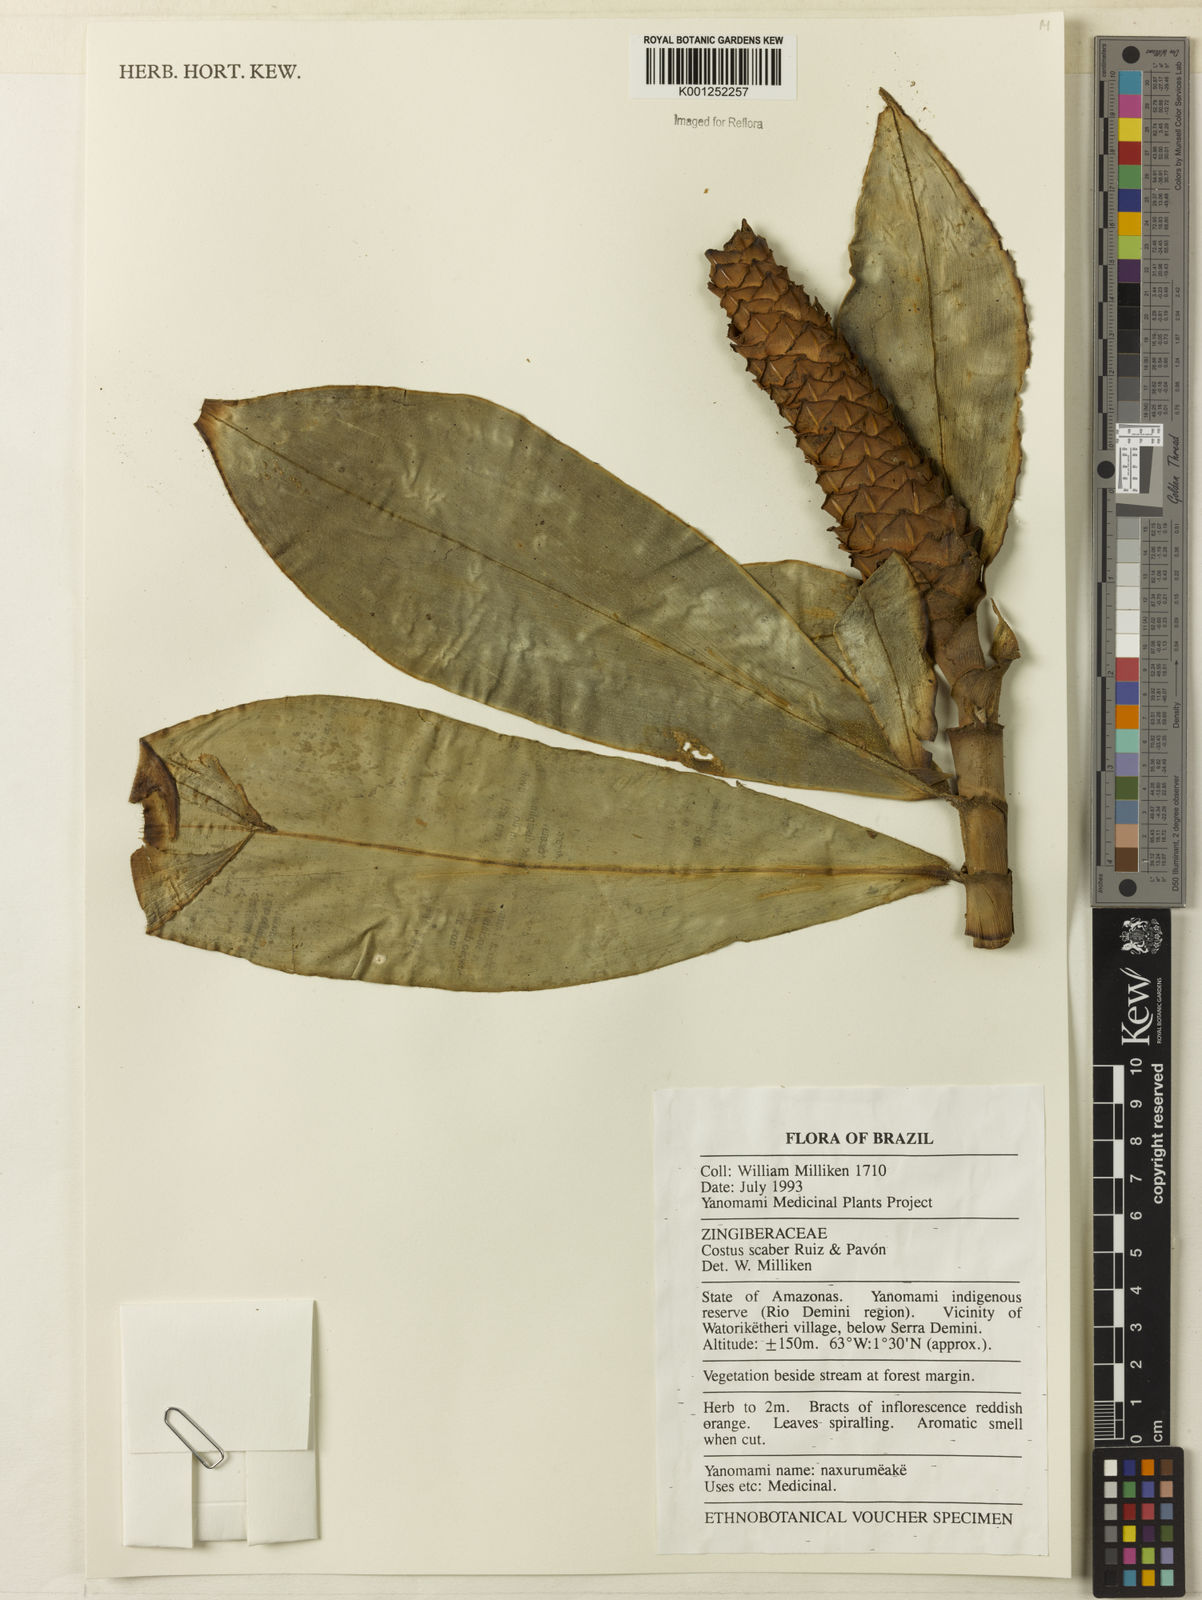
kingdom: Plantae
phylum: Tracheophyta
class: Liliopsida
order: Zingiberales
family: Costaceae
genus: Costus
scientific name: Costus scaber
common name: Spiral head ginger
